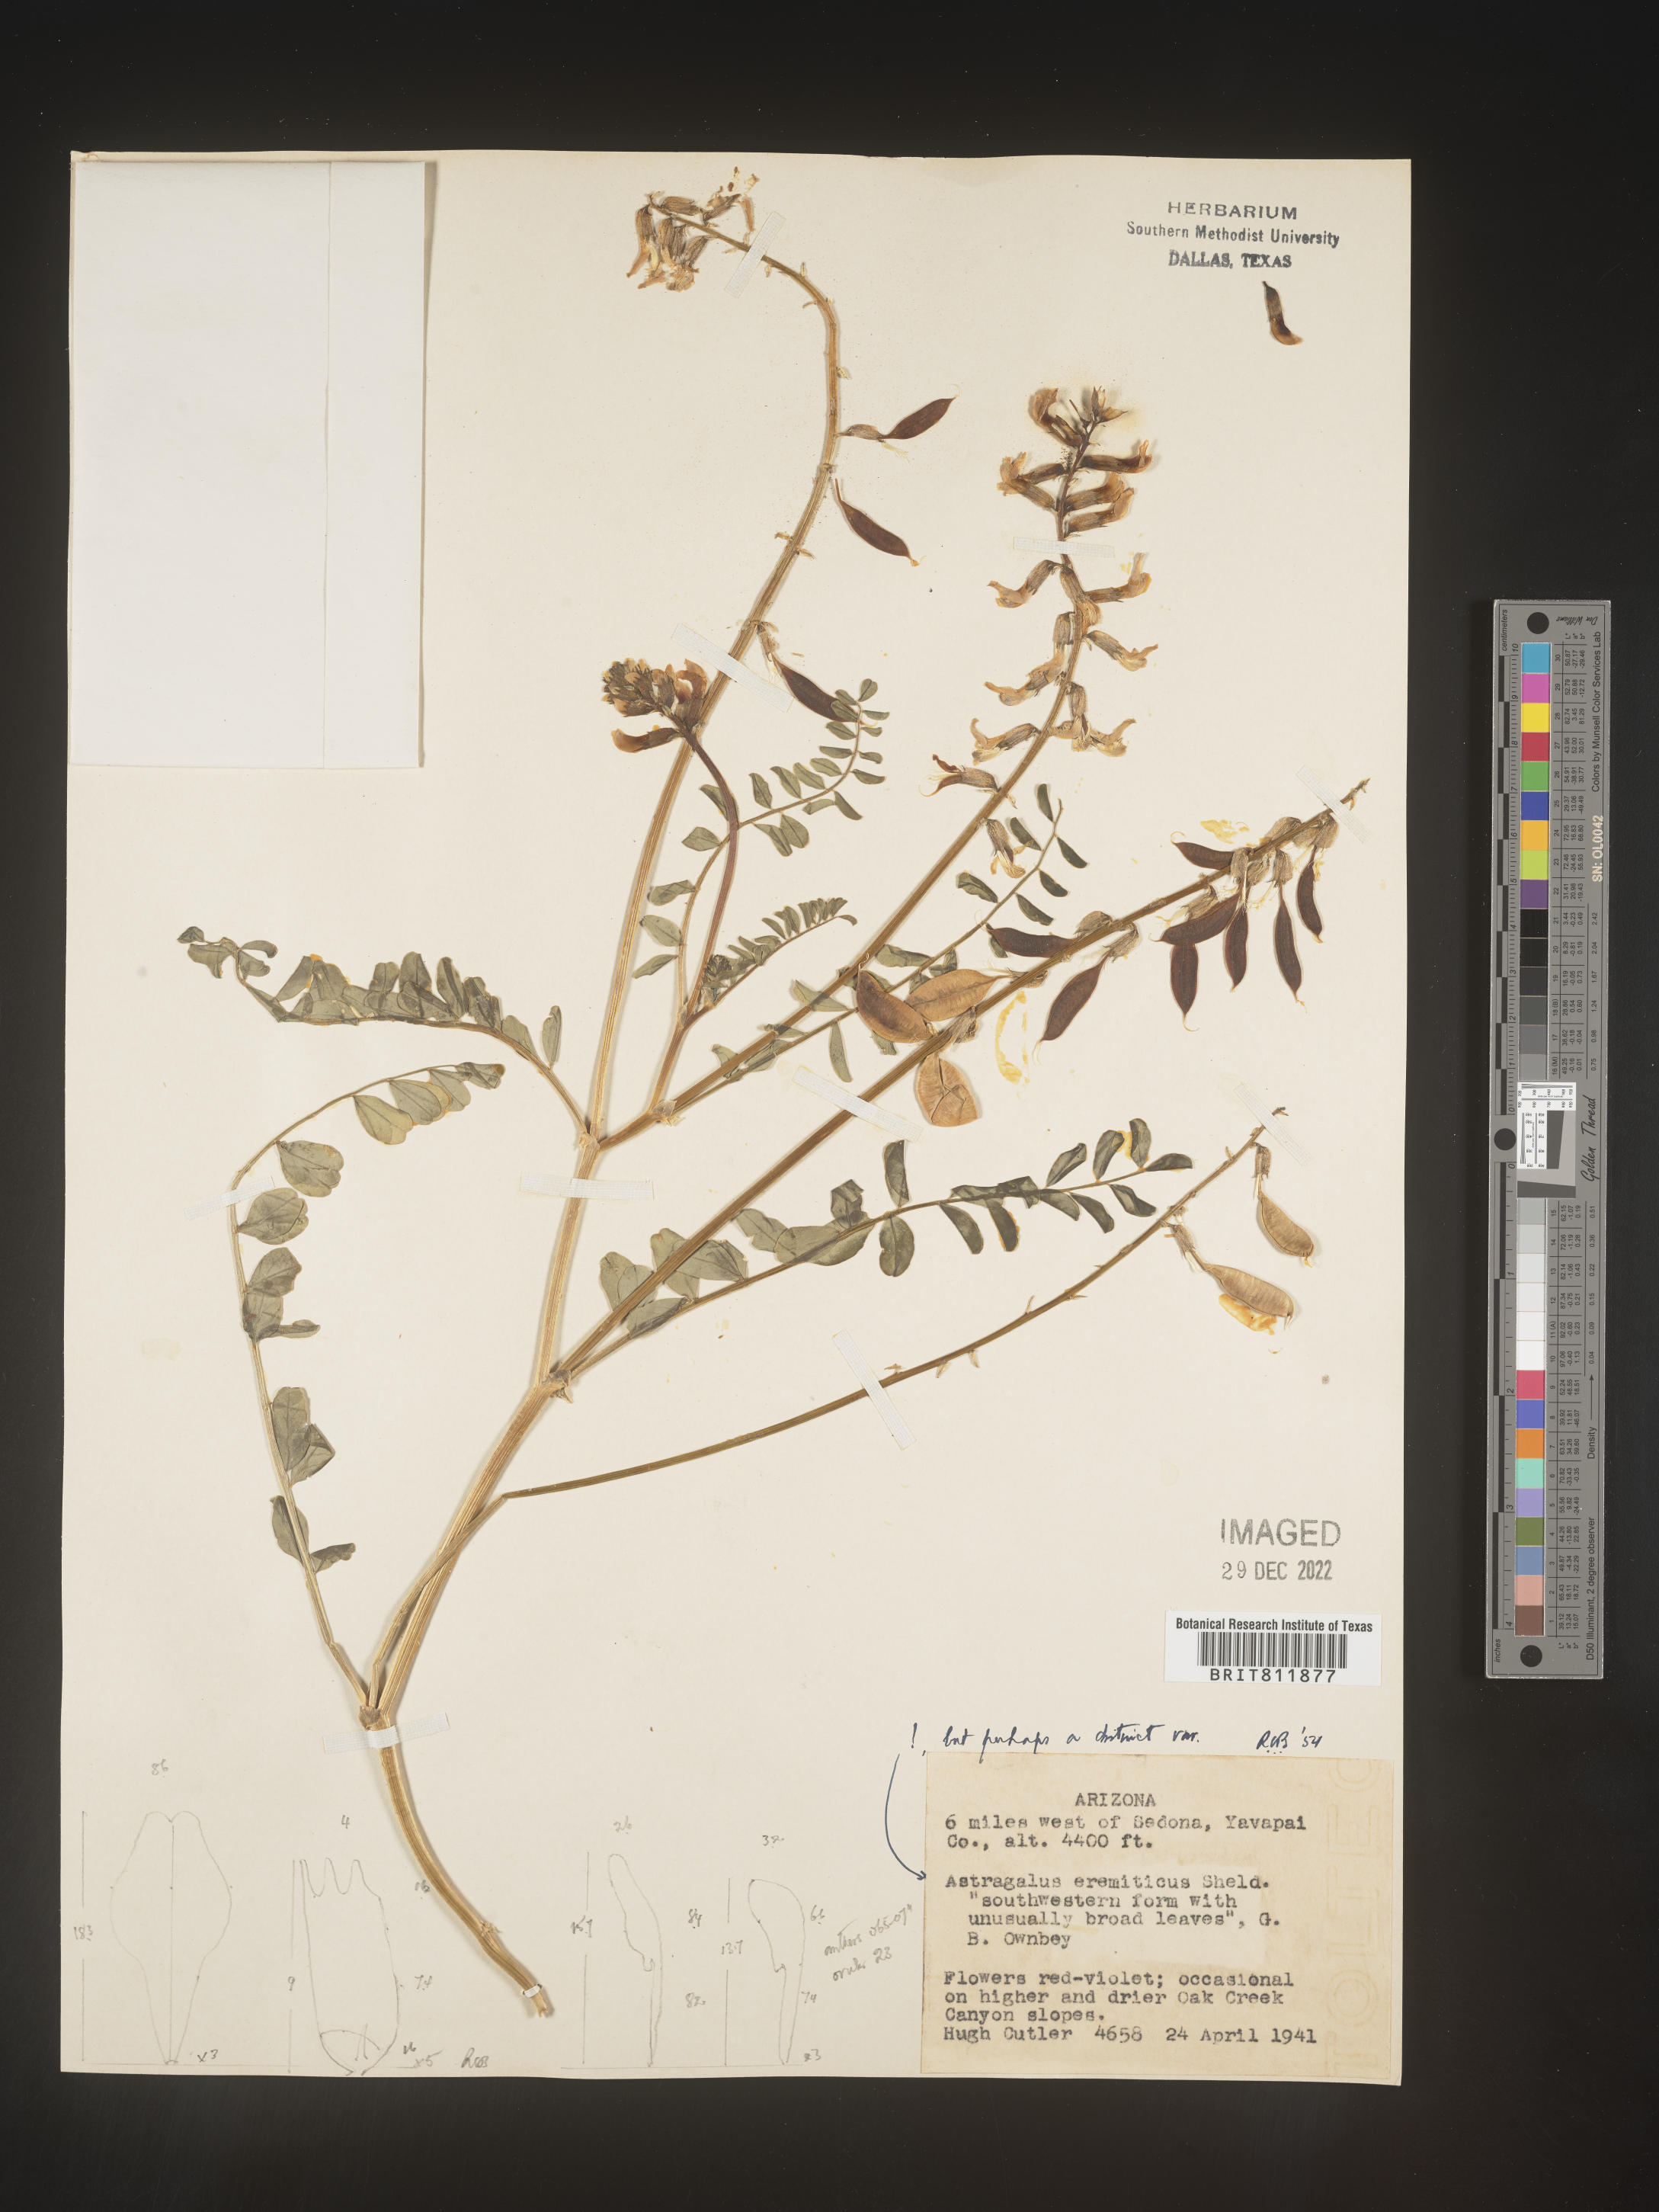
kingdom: Plantae
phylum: Tracheophyta
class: Magnoliopsida
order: Fabales
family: Fabaceae
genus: Astragalus
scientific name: Astragalus
